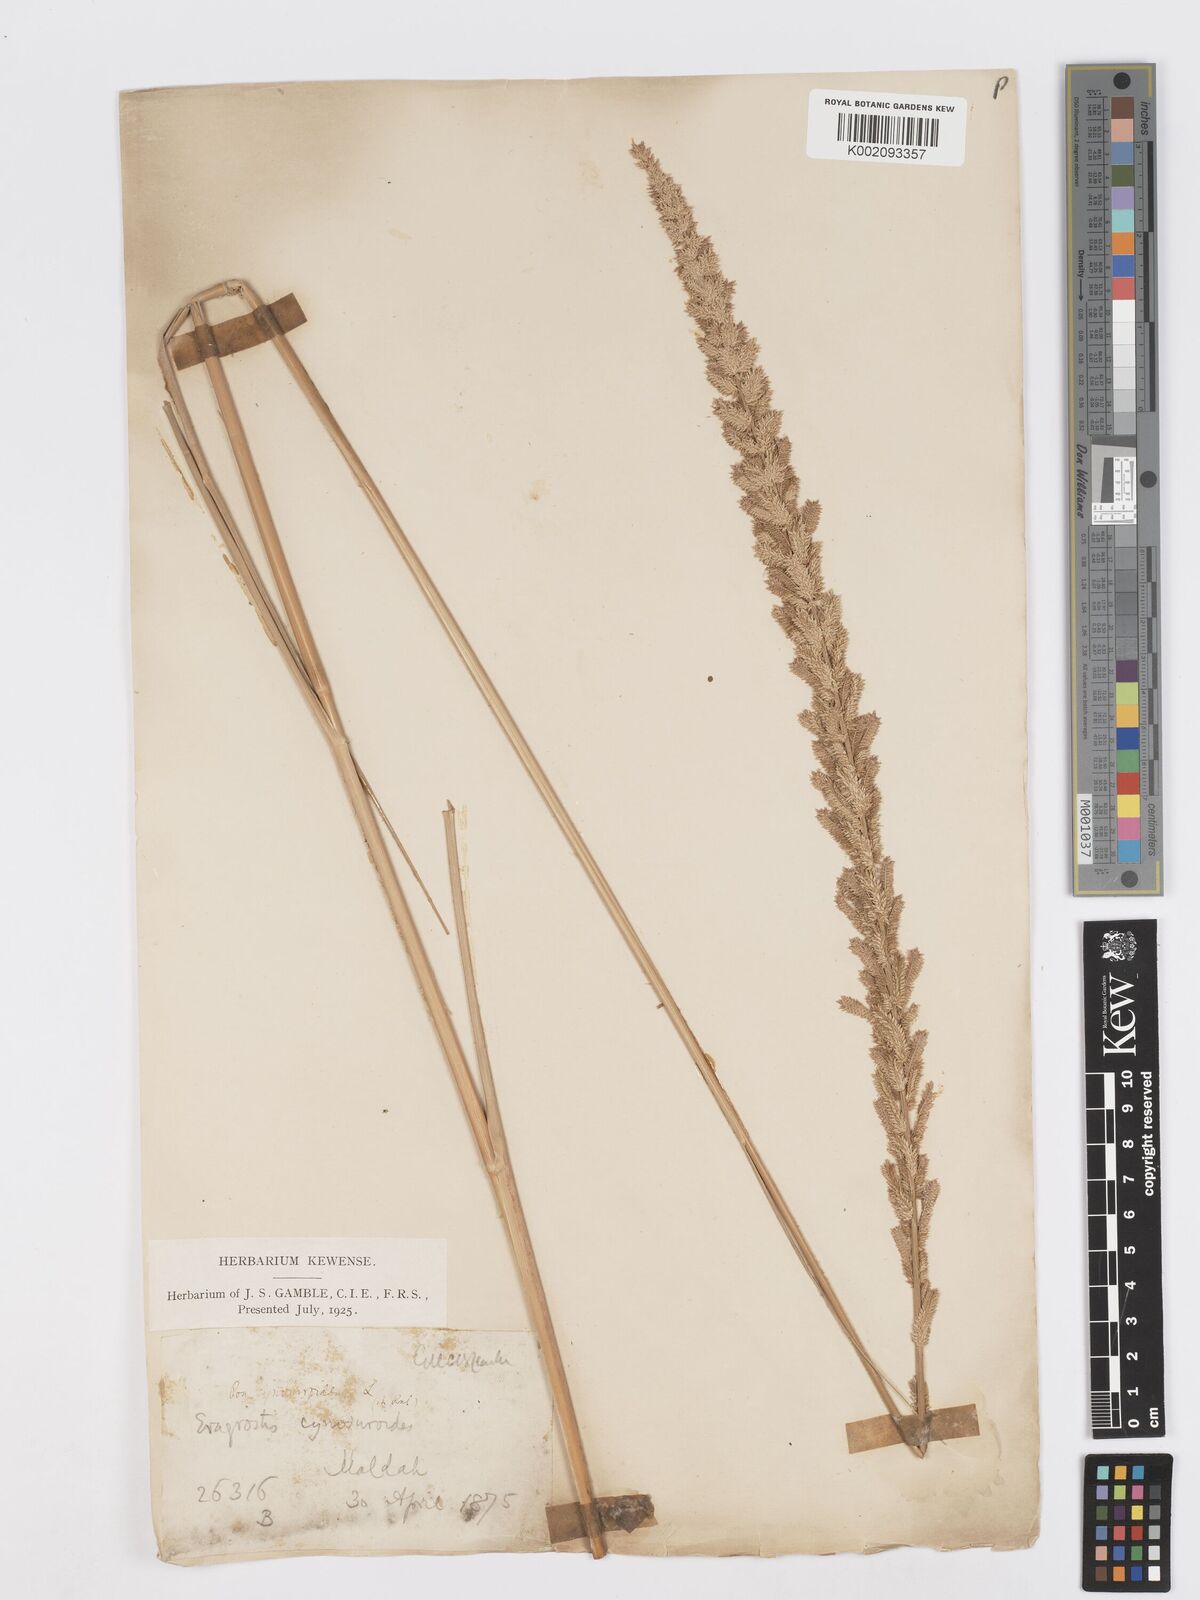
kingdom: Plantae
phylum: Tracheophyta
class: Liliopsida
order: Poales
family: Poaceae
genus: Desmostachya
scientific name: Desmostachya bipinnata
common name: Crowfoot grass
